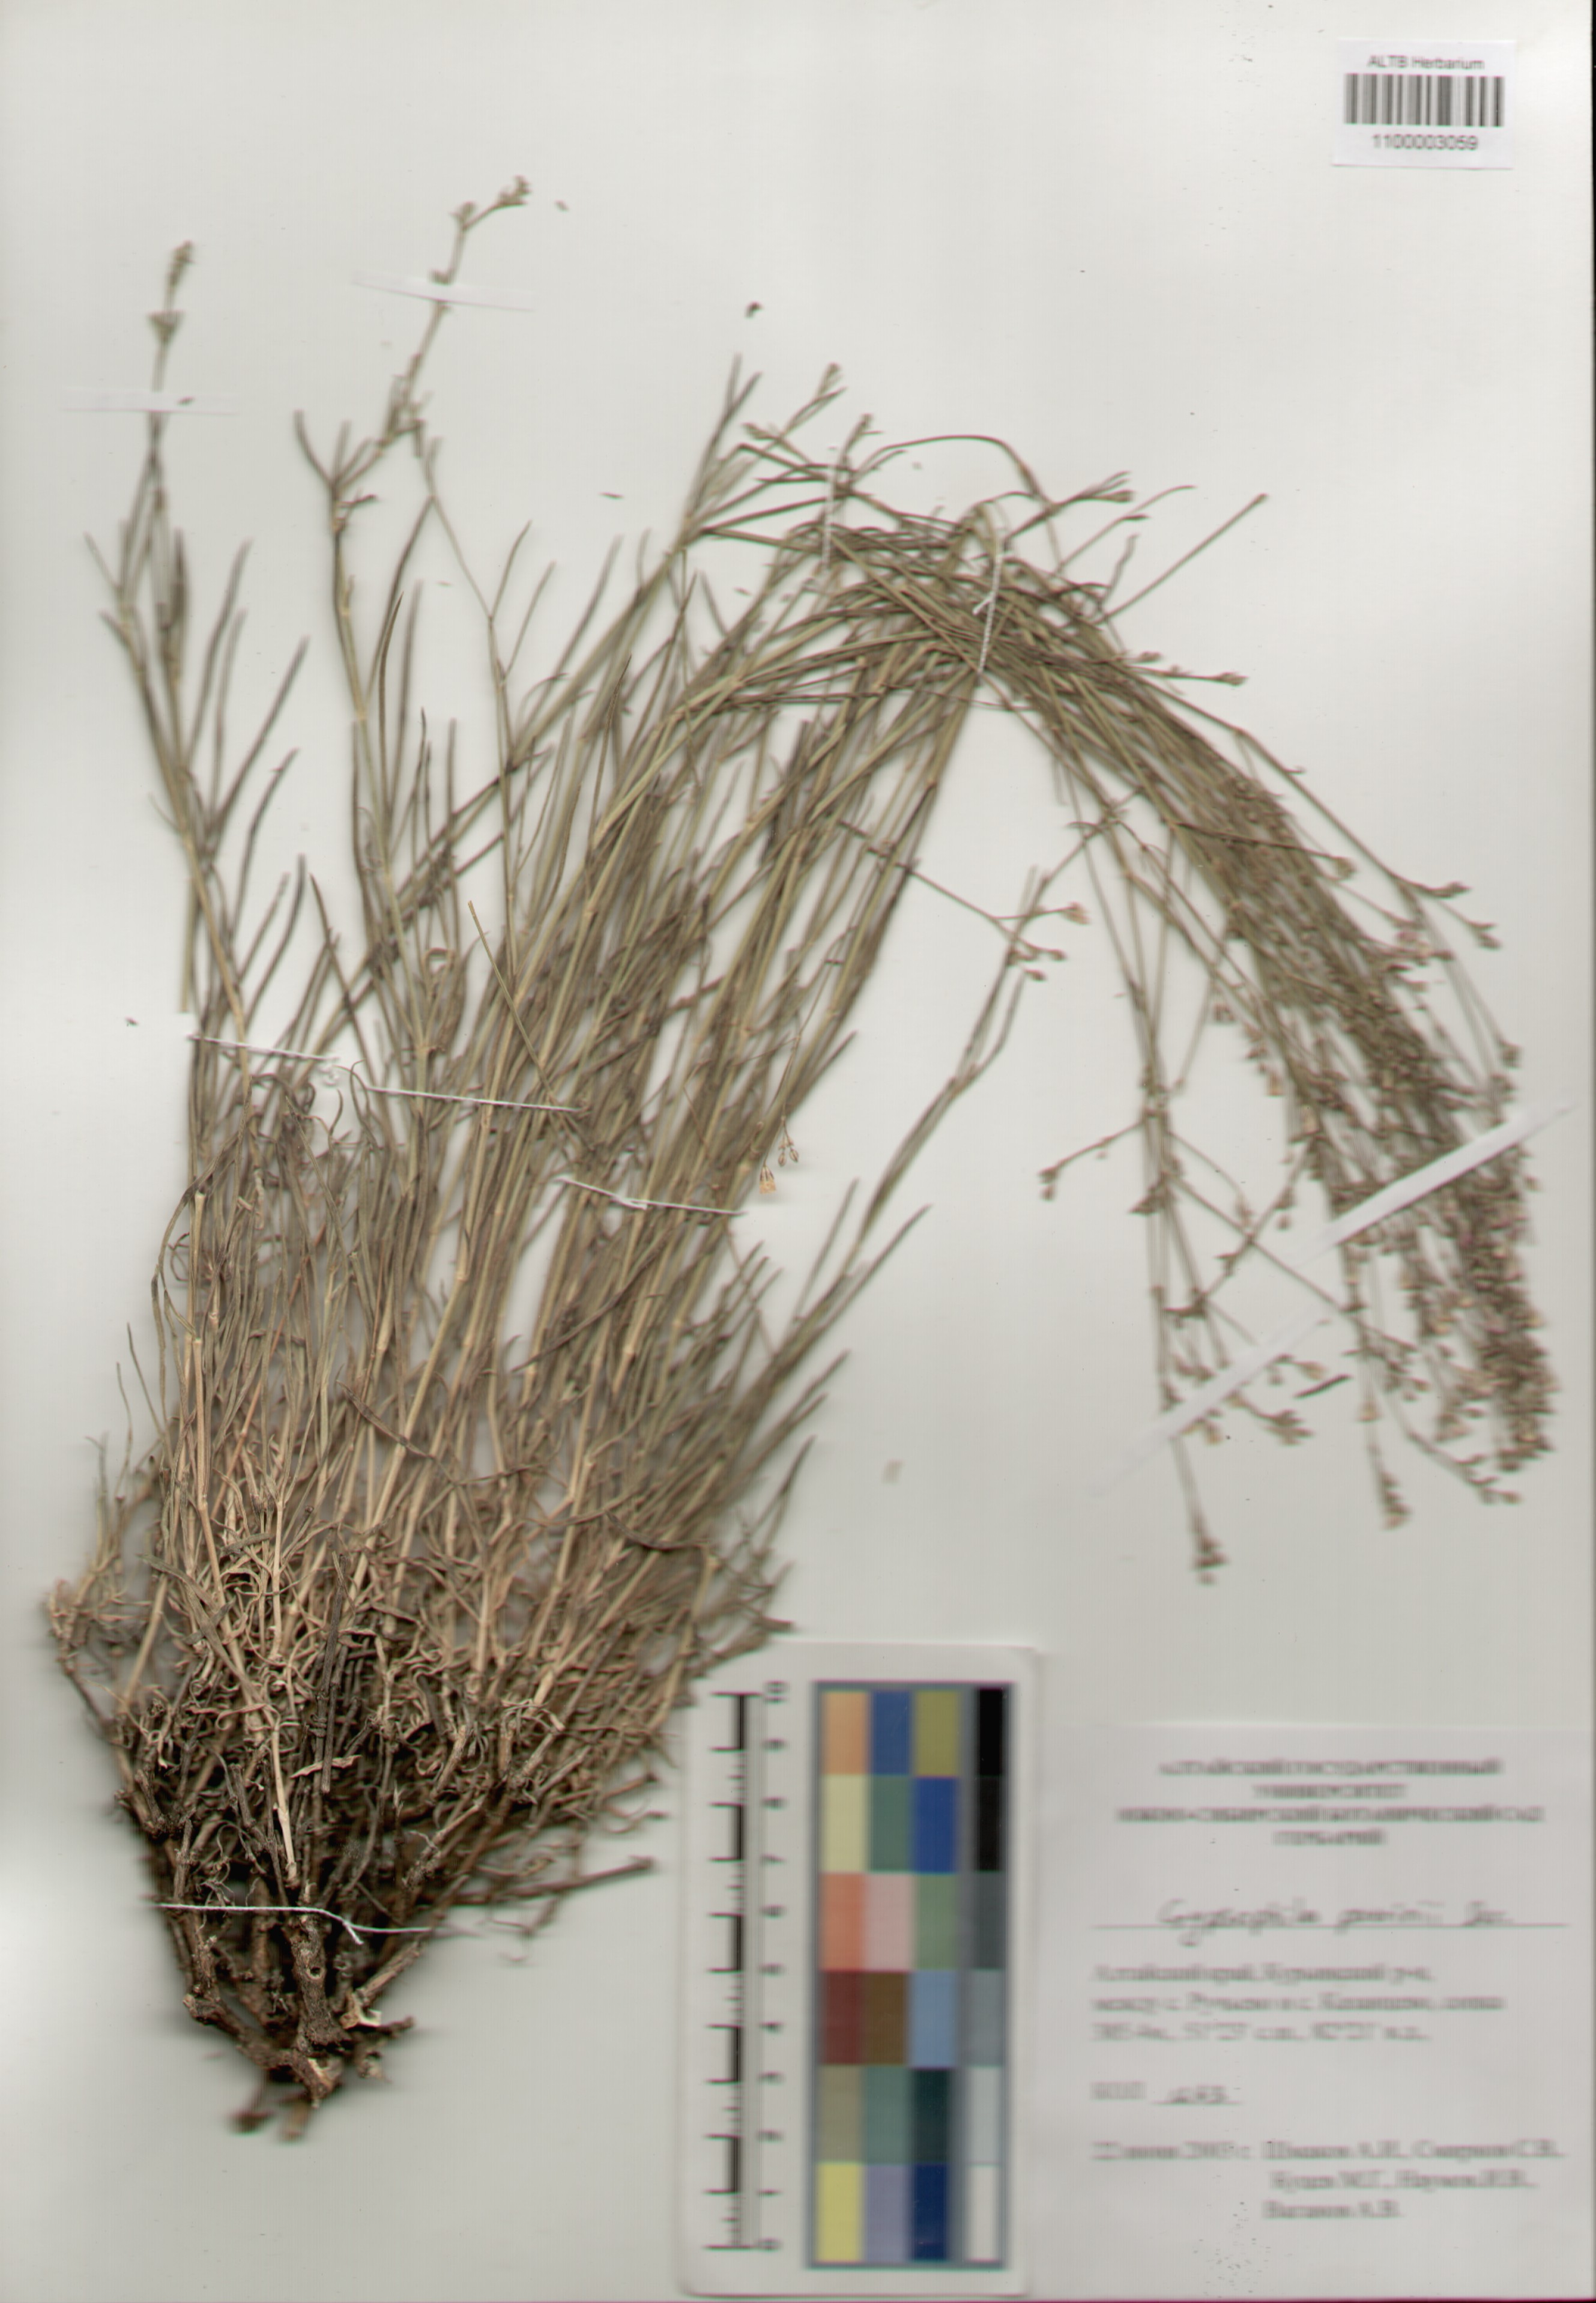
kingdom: Plantae
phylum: Tracheophyta
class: Magnoliopsida
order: Caryophyllales
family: Caryophyllaceae
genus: Gypsophila
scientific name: Gypsophila patrinii
